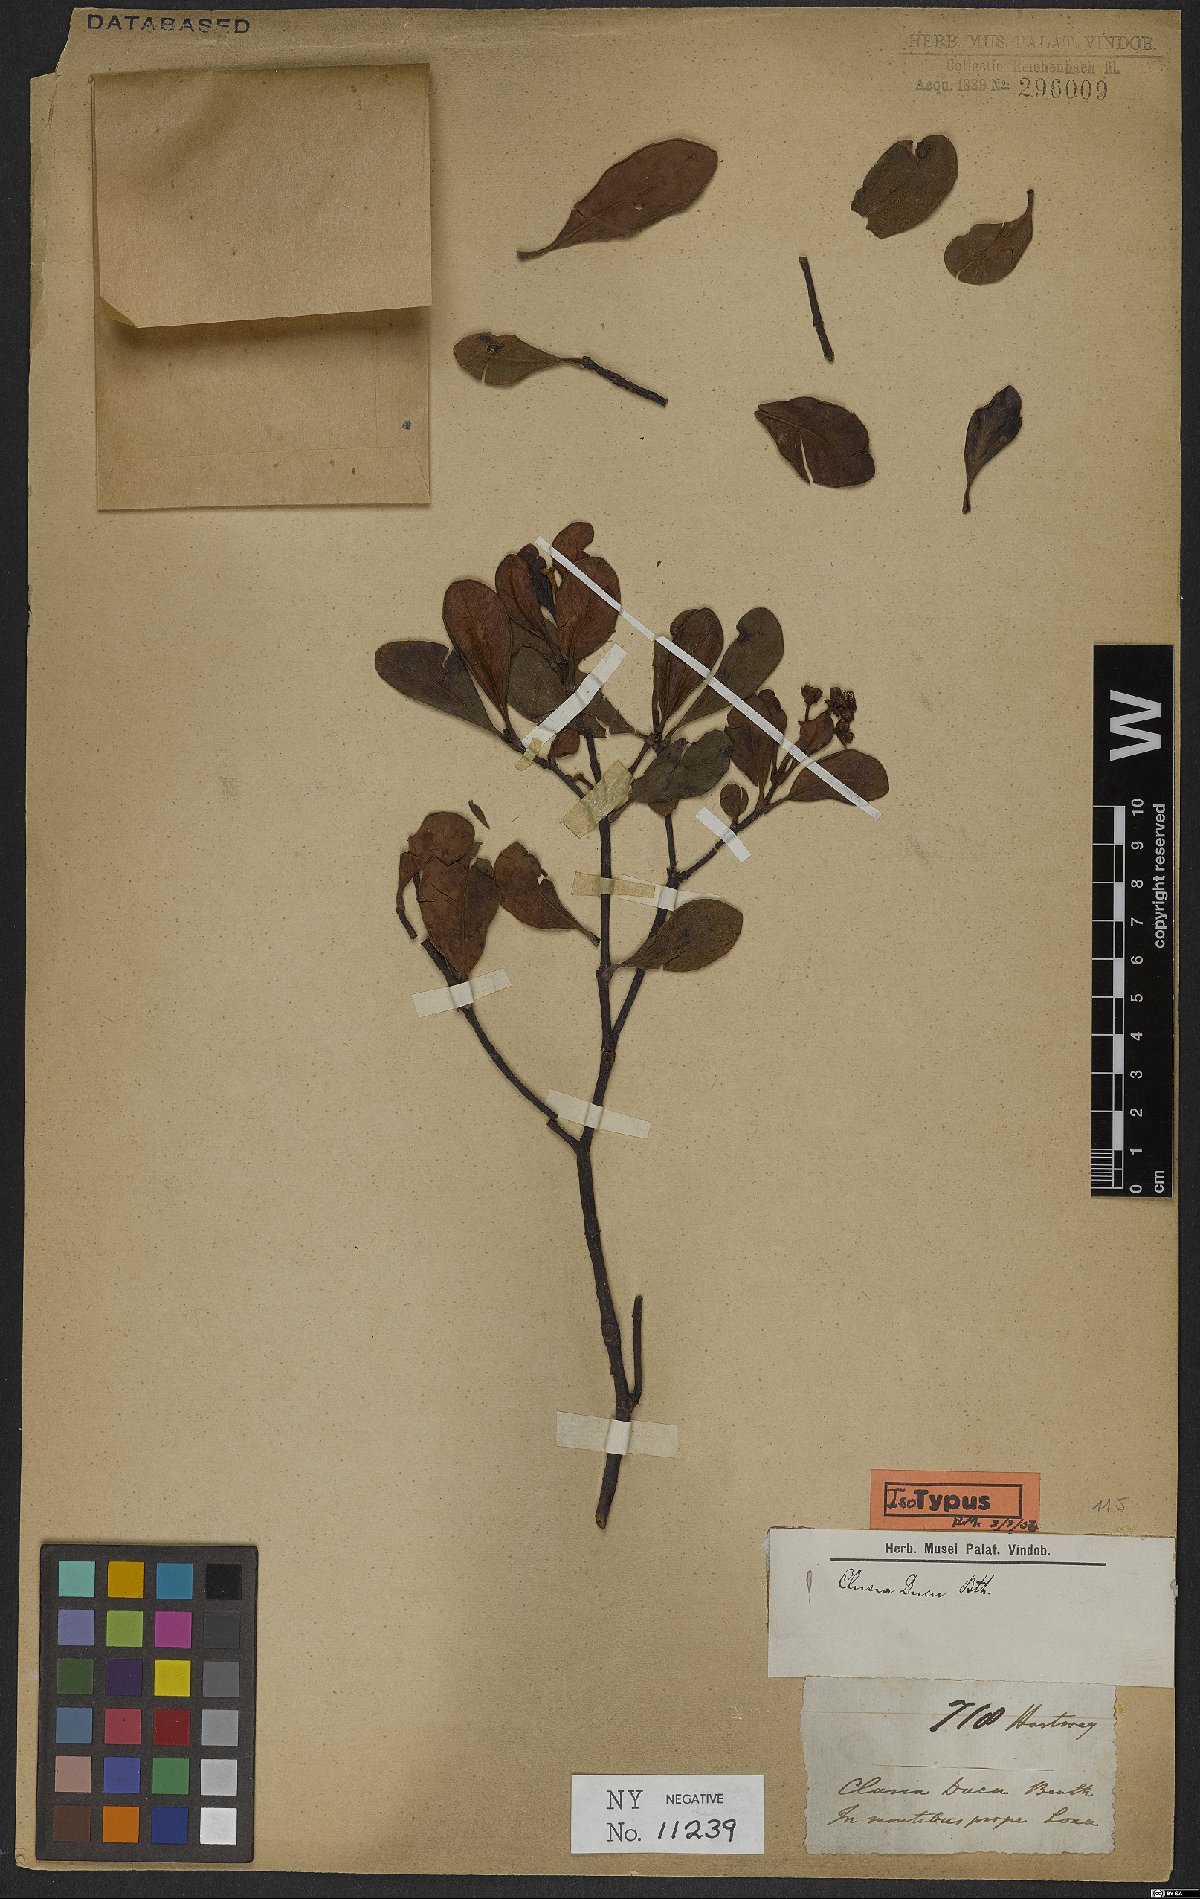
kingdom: Plantae
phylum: Tracheophyta
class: Magnoliopsida
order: Malpighiales
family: Clusiaceae
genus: Clusia
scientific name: Clusia ducu
